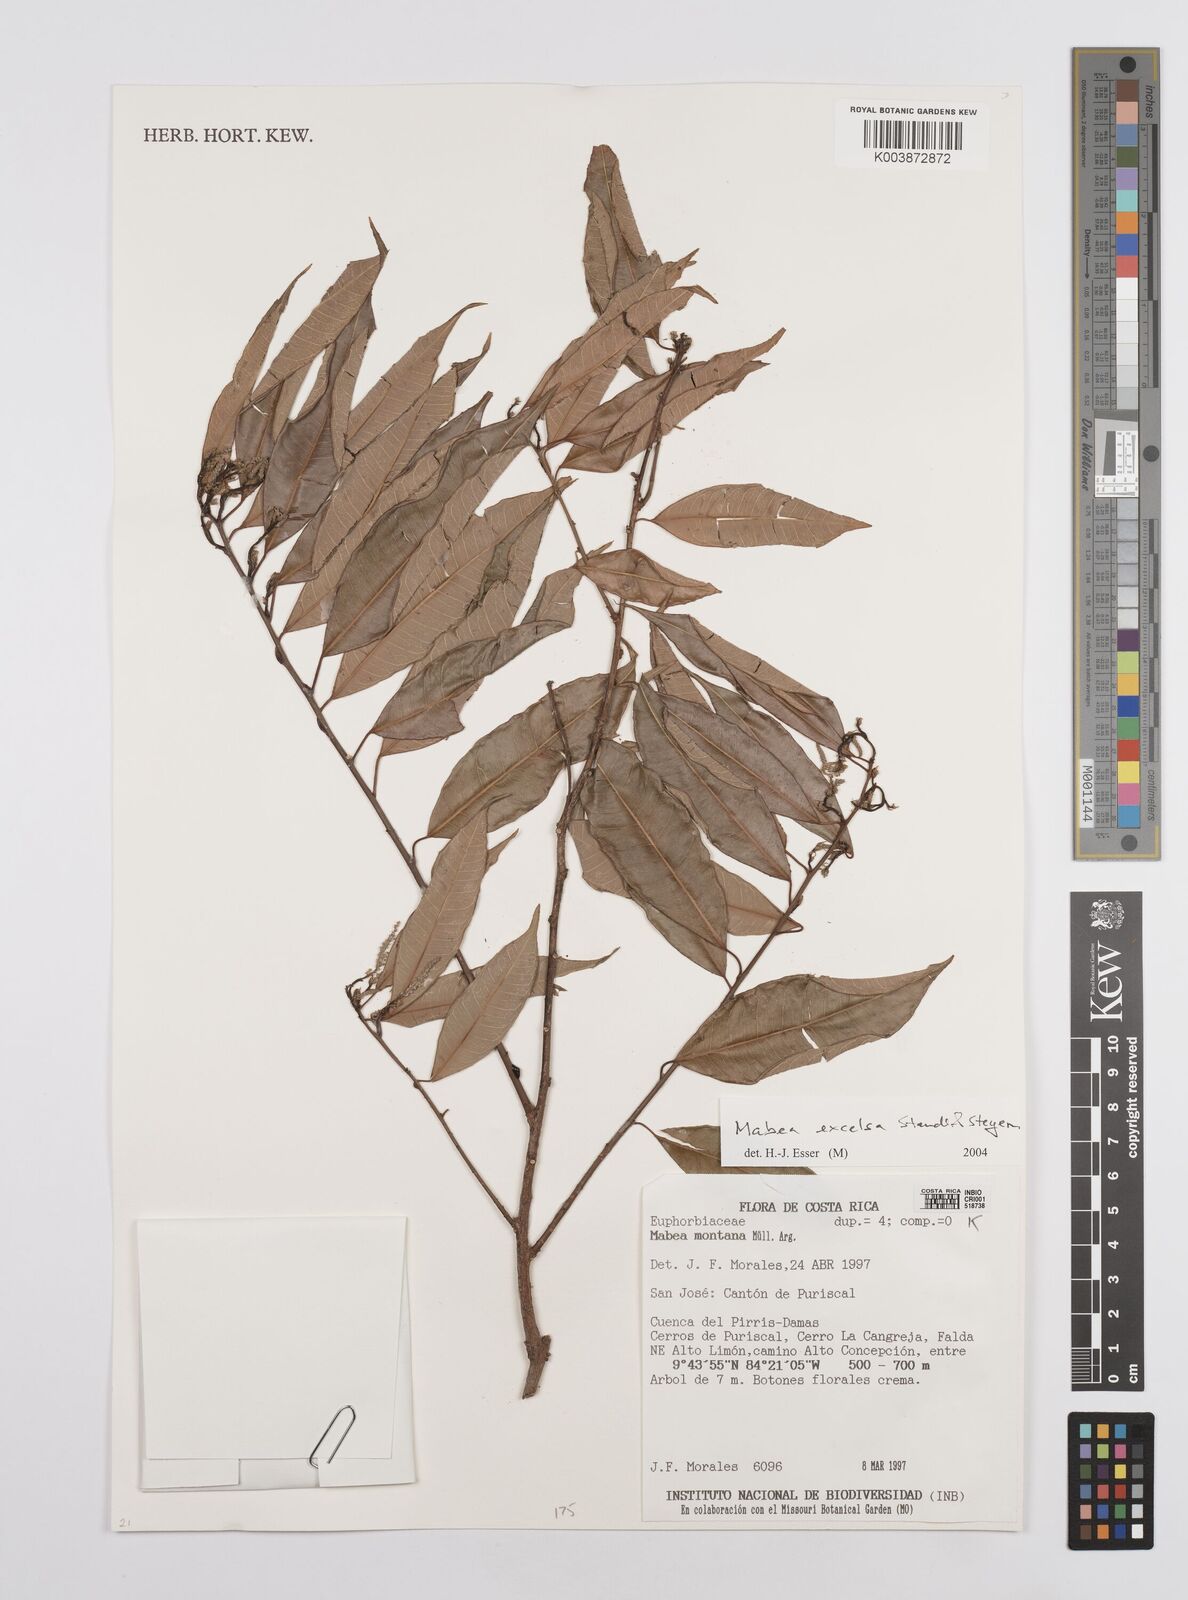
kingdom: Plantae
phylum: Tracheophyta
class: Magnoliopsida
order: Malpighiales
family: Euphorbiaceae
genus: Mabea
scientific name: Mabea excelsa
